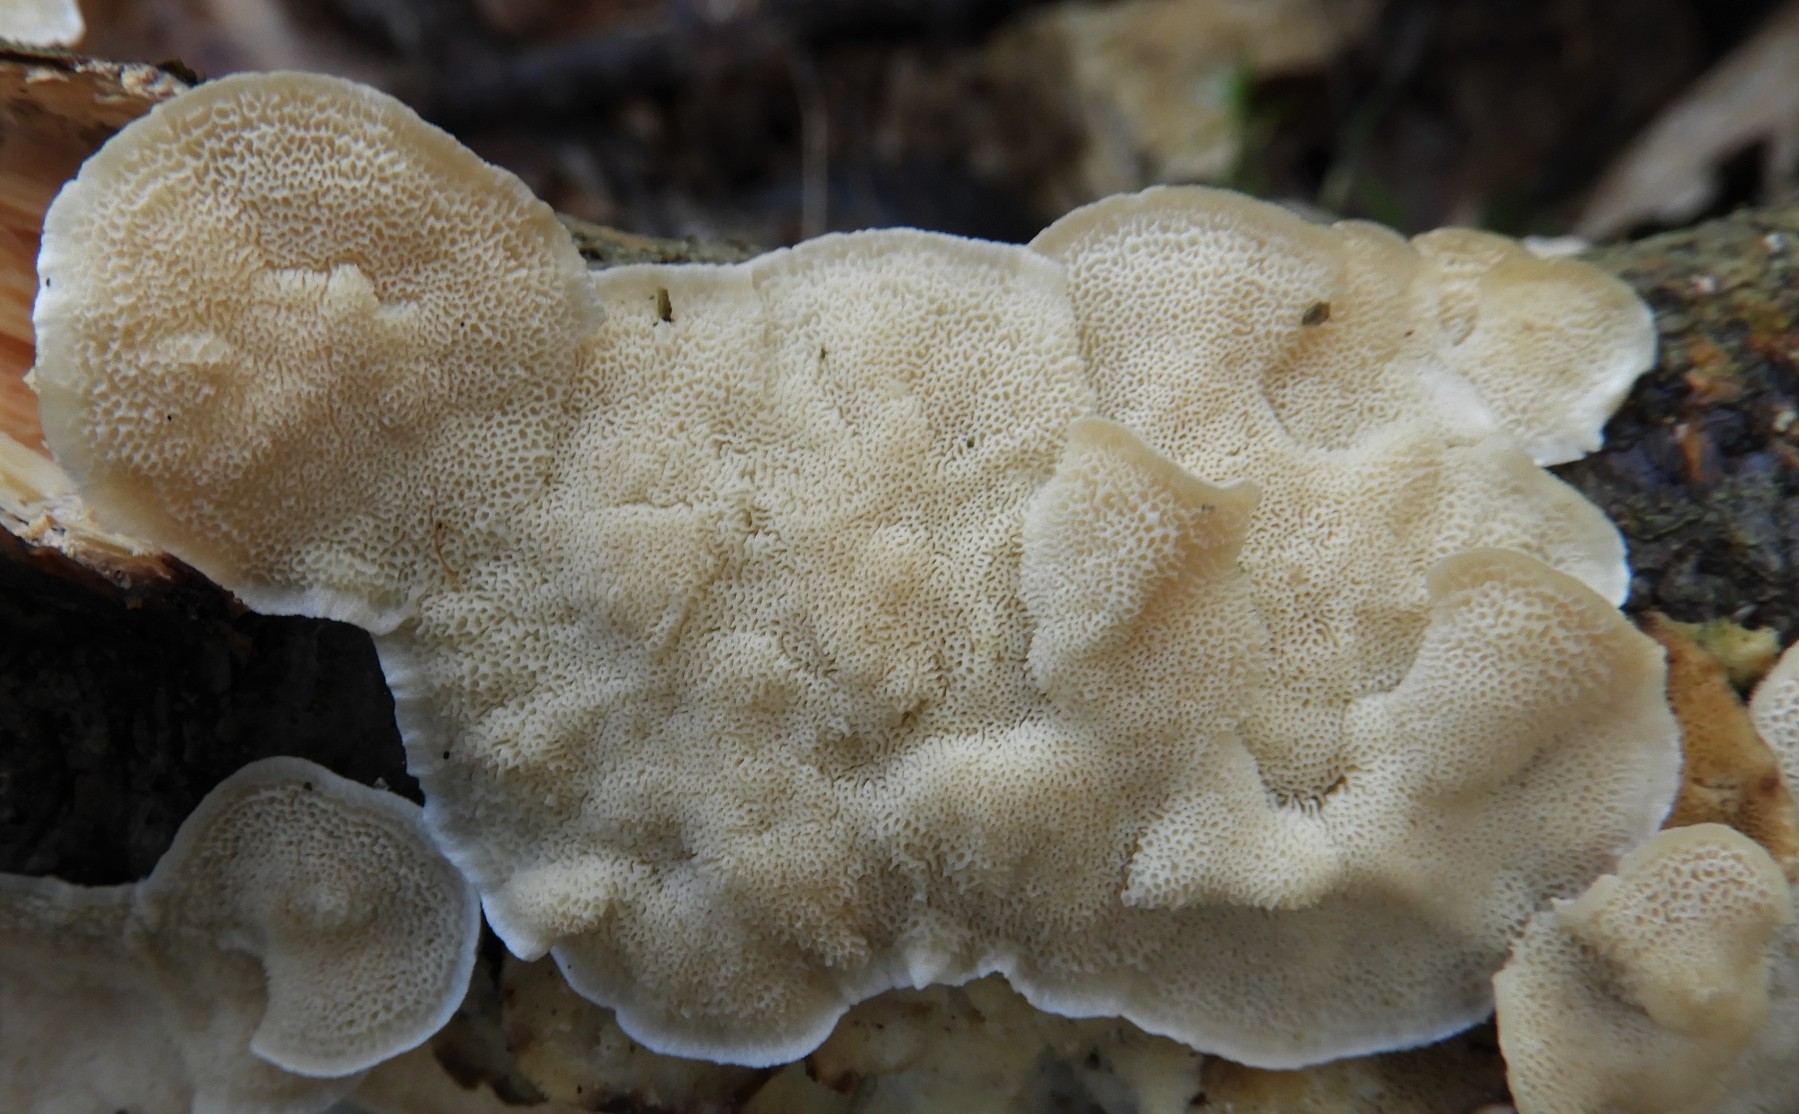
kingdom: Fungi
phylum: Basidiomycota
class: Agaricomycetes
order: Polyporales
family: Polyporaceae
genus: Trametes
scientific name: Trametes ochracea
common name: bæltet læderporesvamp
